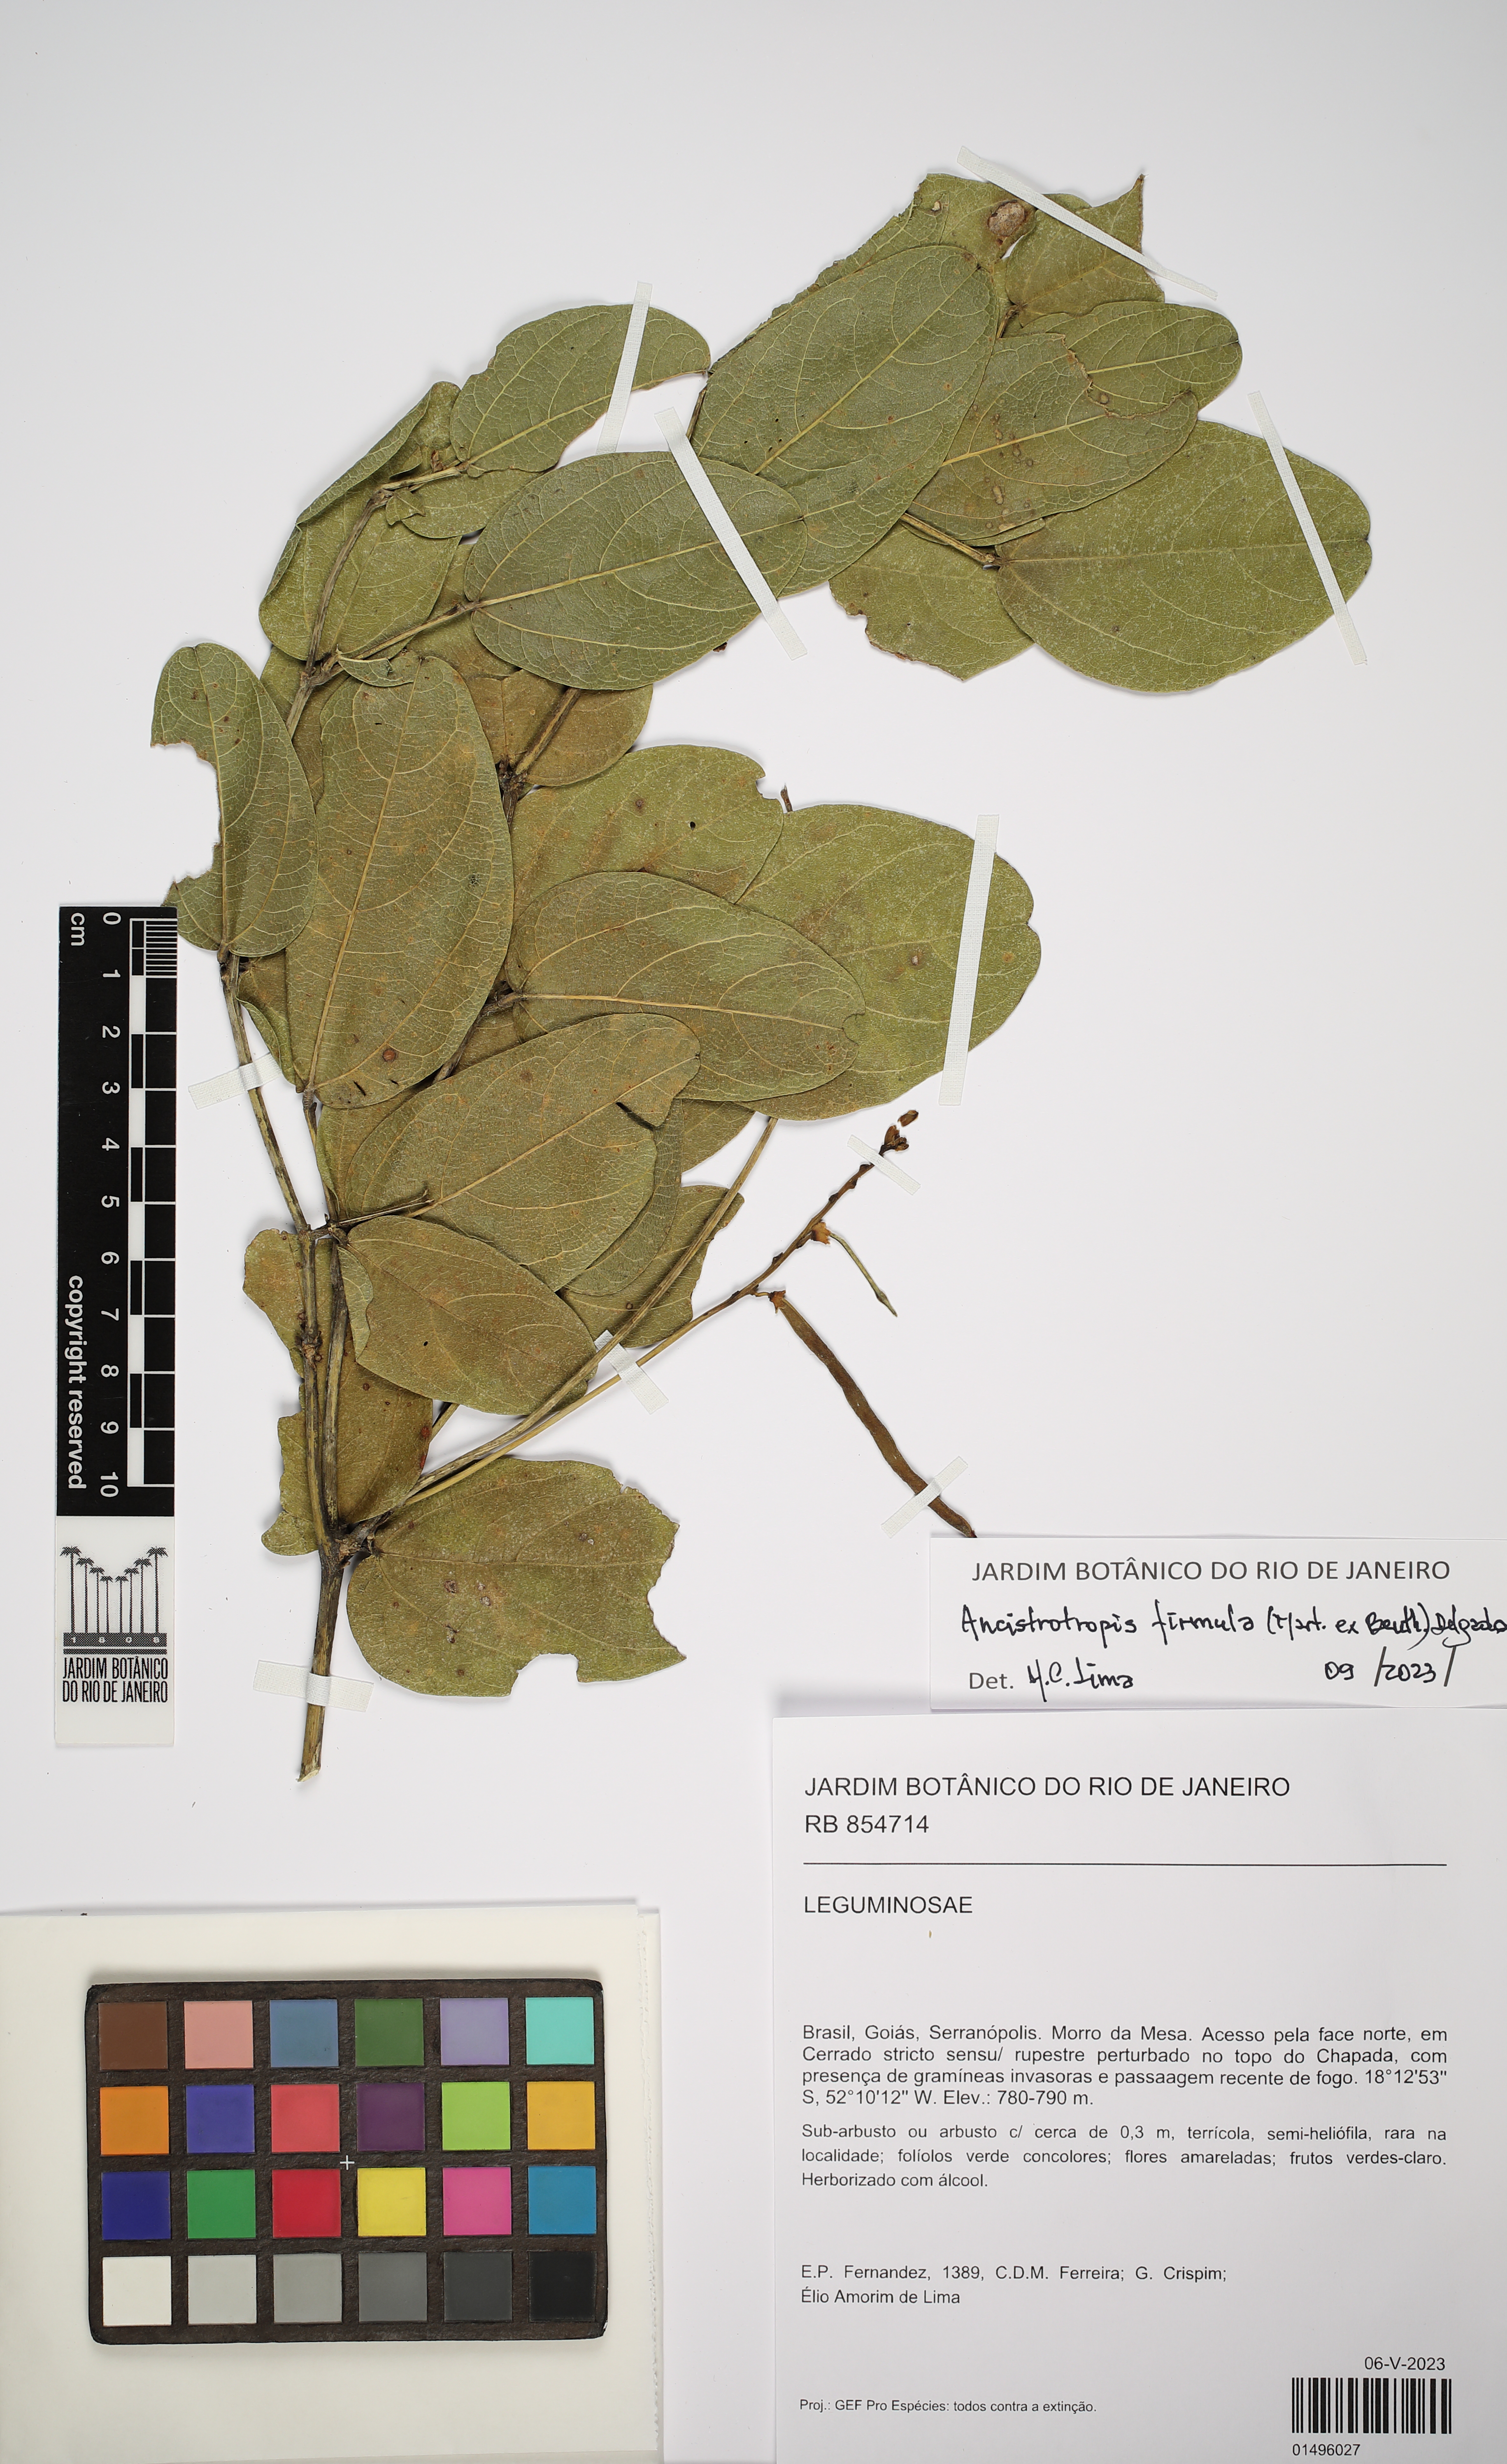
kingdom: Plantae
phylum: Tracheophyta
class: Magnoliopsida
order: Fabales
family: Fabaceae
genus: Ancistrotropis
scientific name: Ancistrotropis firmula
